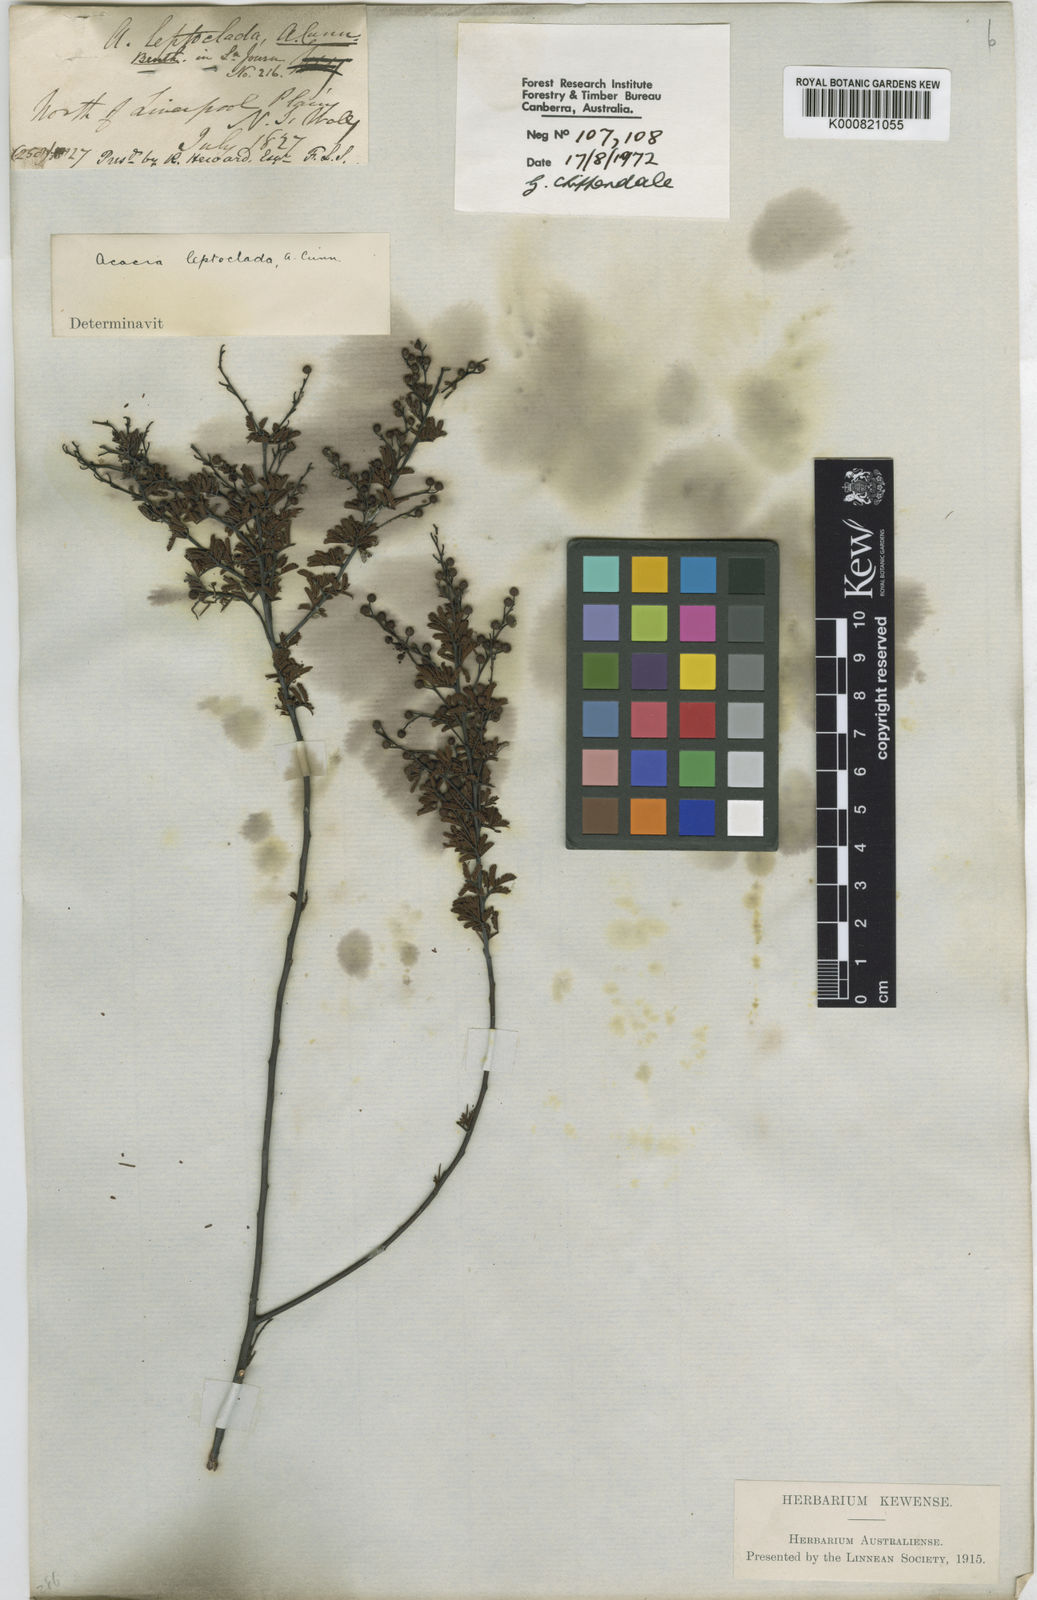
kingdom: Plantae
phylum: Tracheophyta
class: Magnoliopsida
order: Fabales
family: Fabaceae
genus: Acacia
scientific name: Acacia leptoclada
